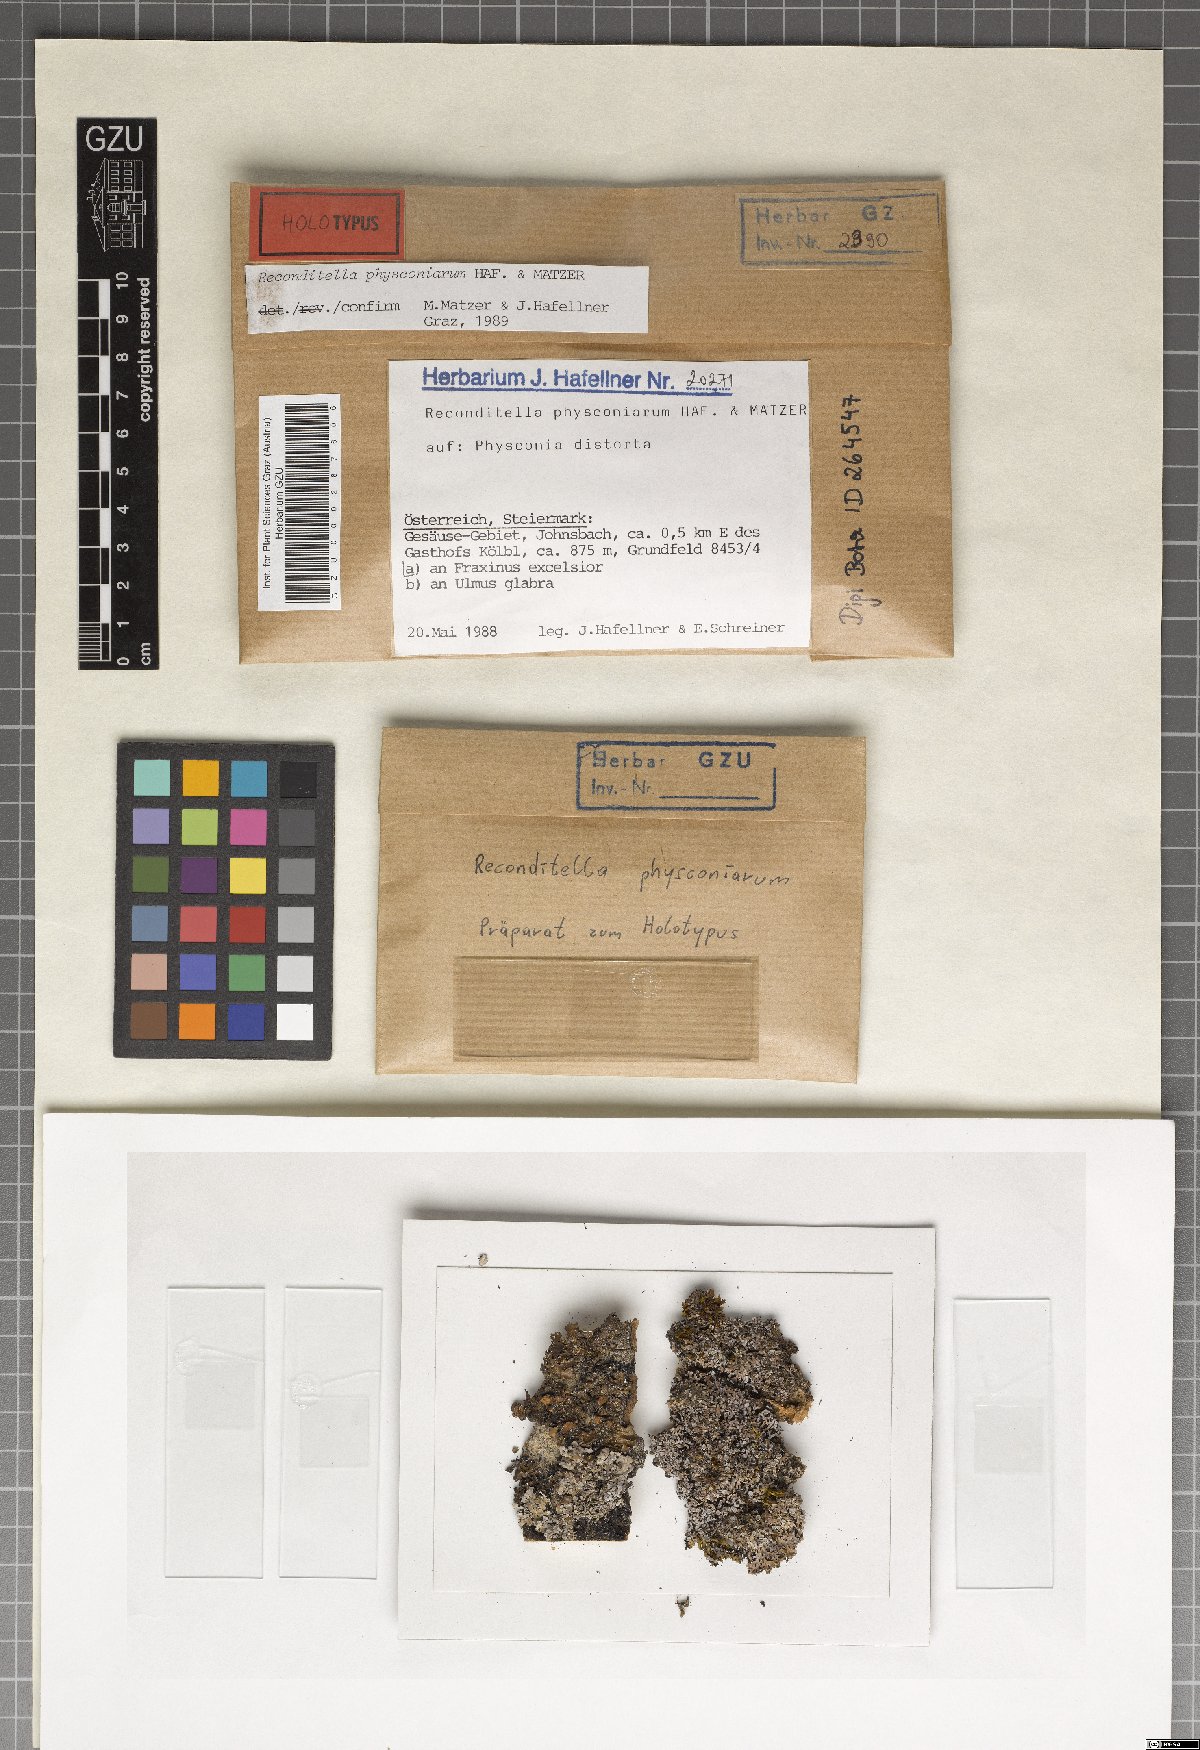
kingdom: Fungi
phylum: Ascomycota
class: Sordariomycetes
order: Sordariales
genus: Reconditella
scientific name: Reconditella physconiarum
